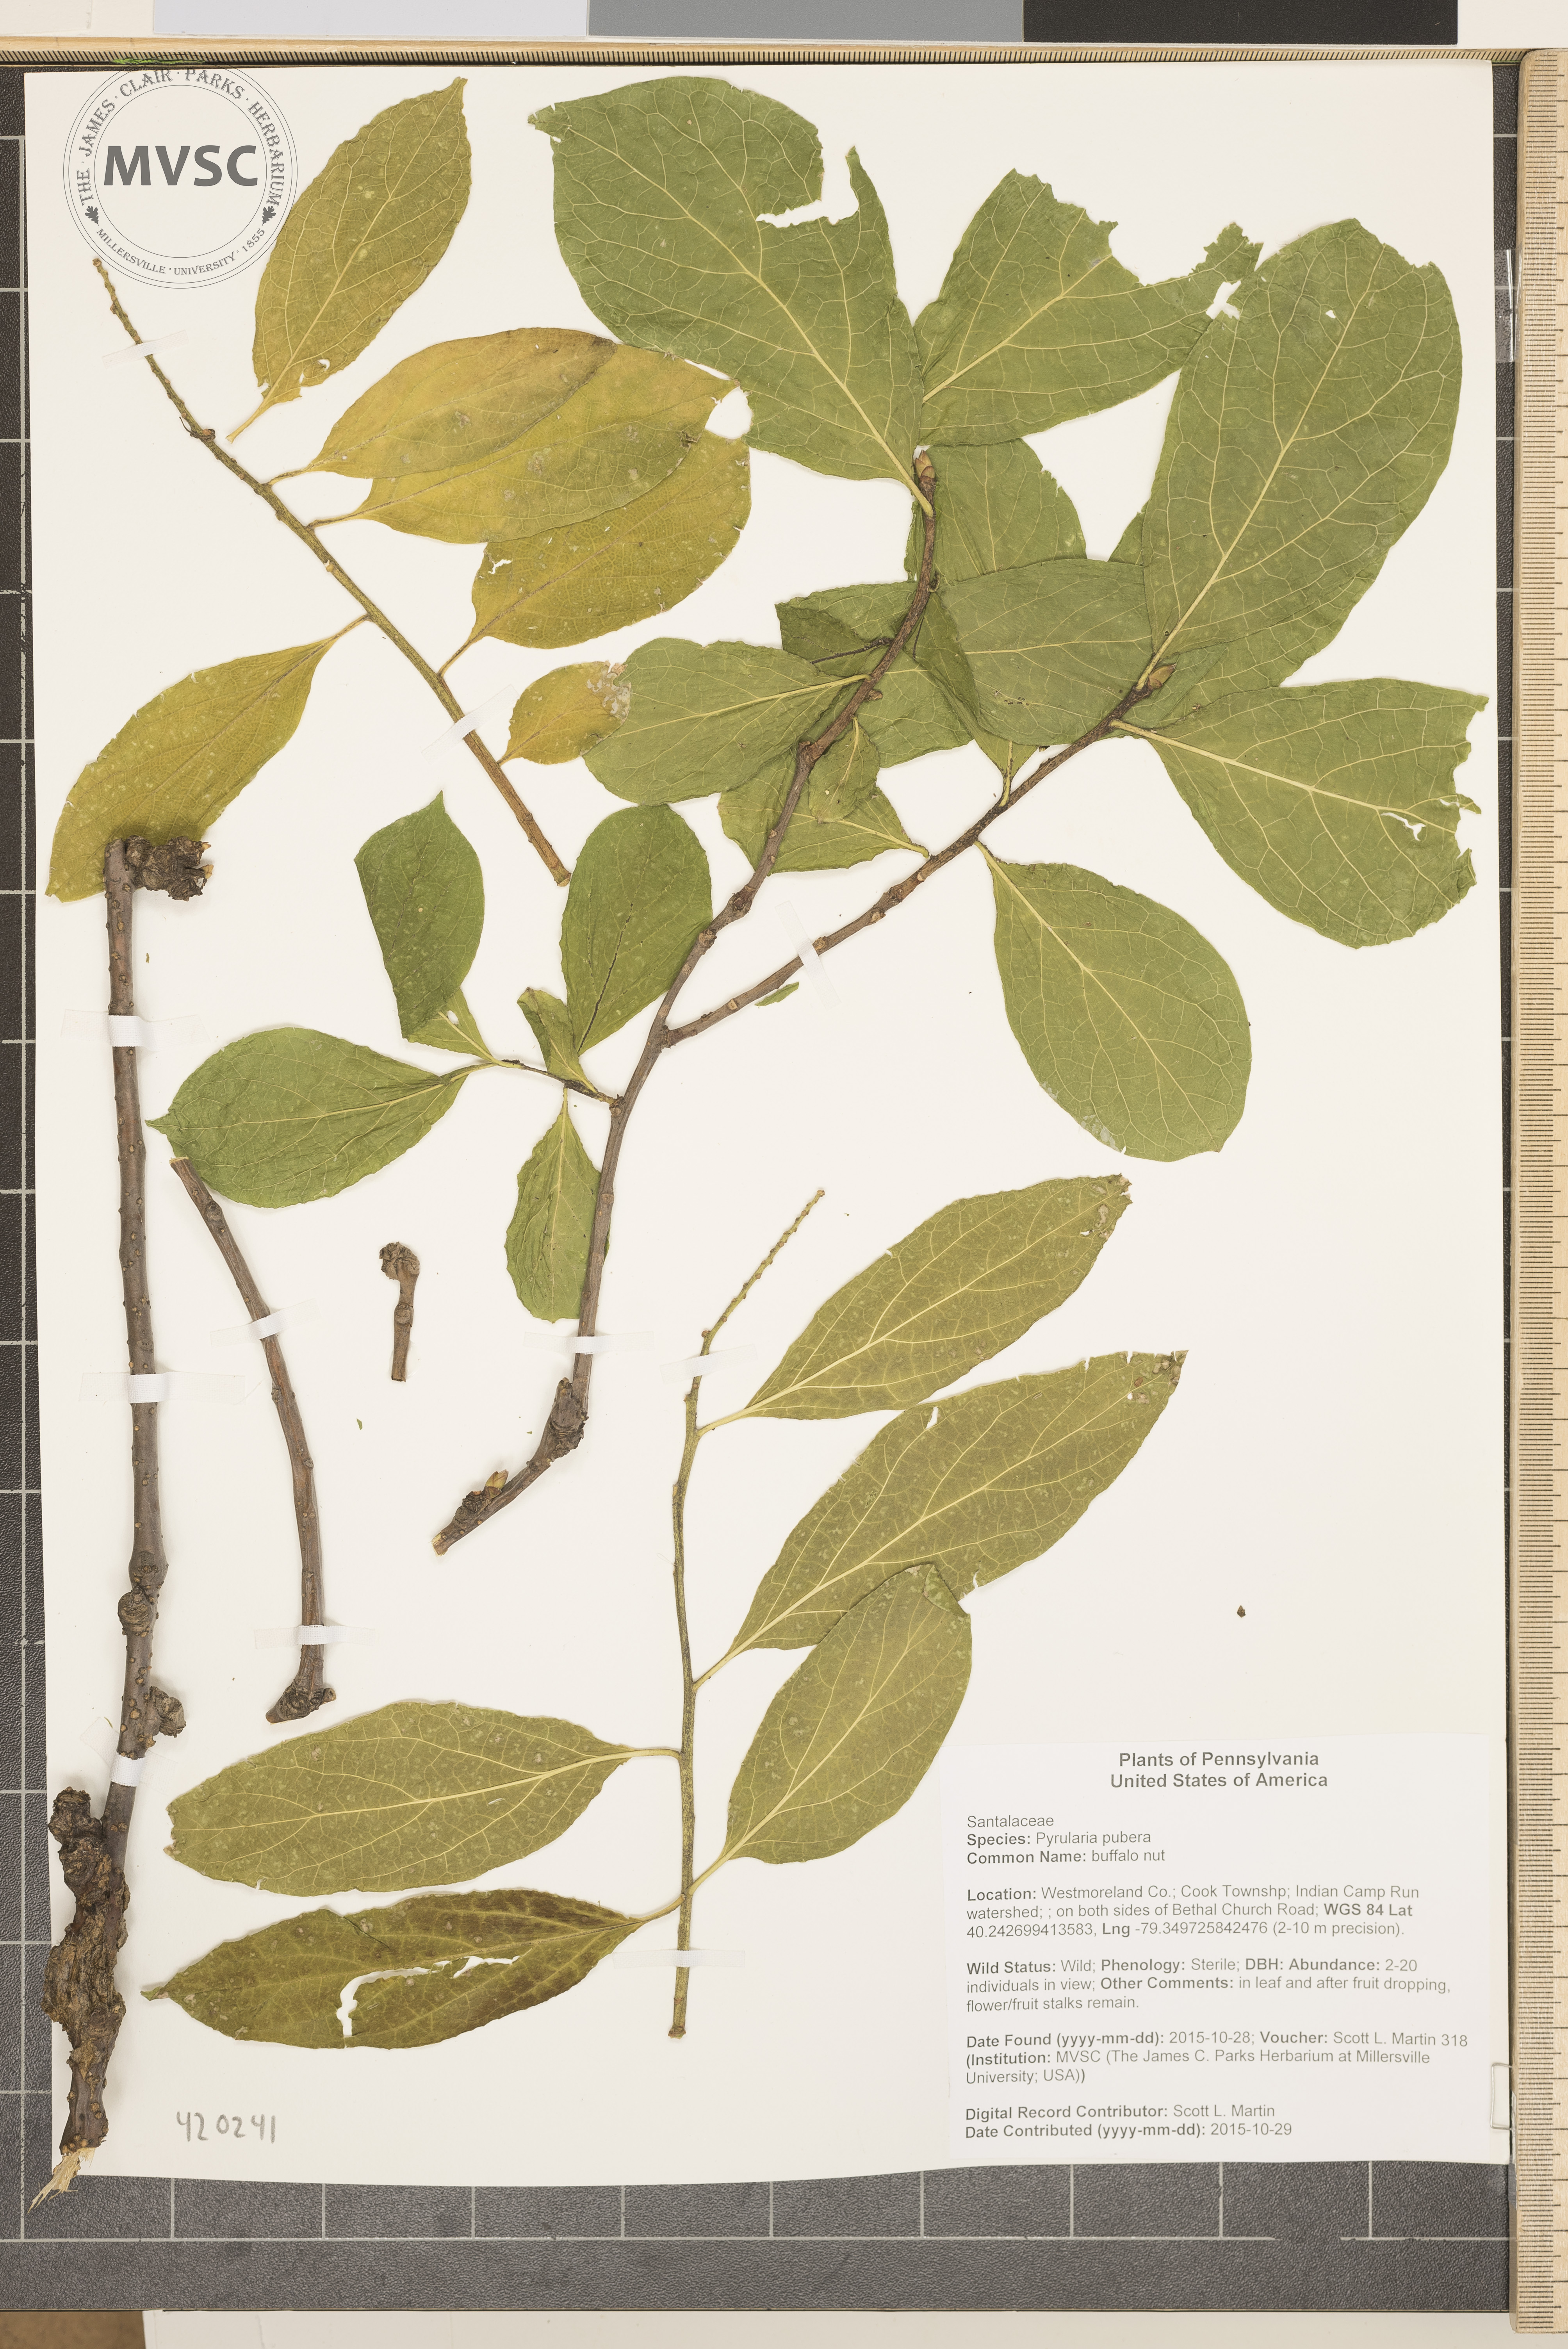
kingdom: Plantae
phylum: Tracheophyta
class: Magnoliopsida
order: Santalales
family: Cervantesiaceae
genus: Pyrularia
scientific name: Pyrularia pubera
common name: buffalo nut
